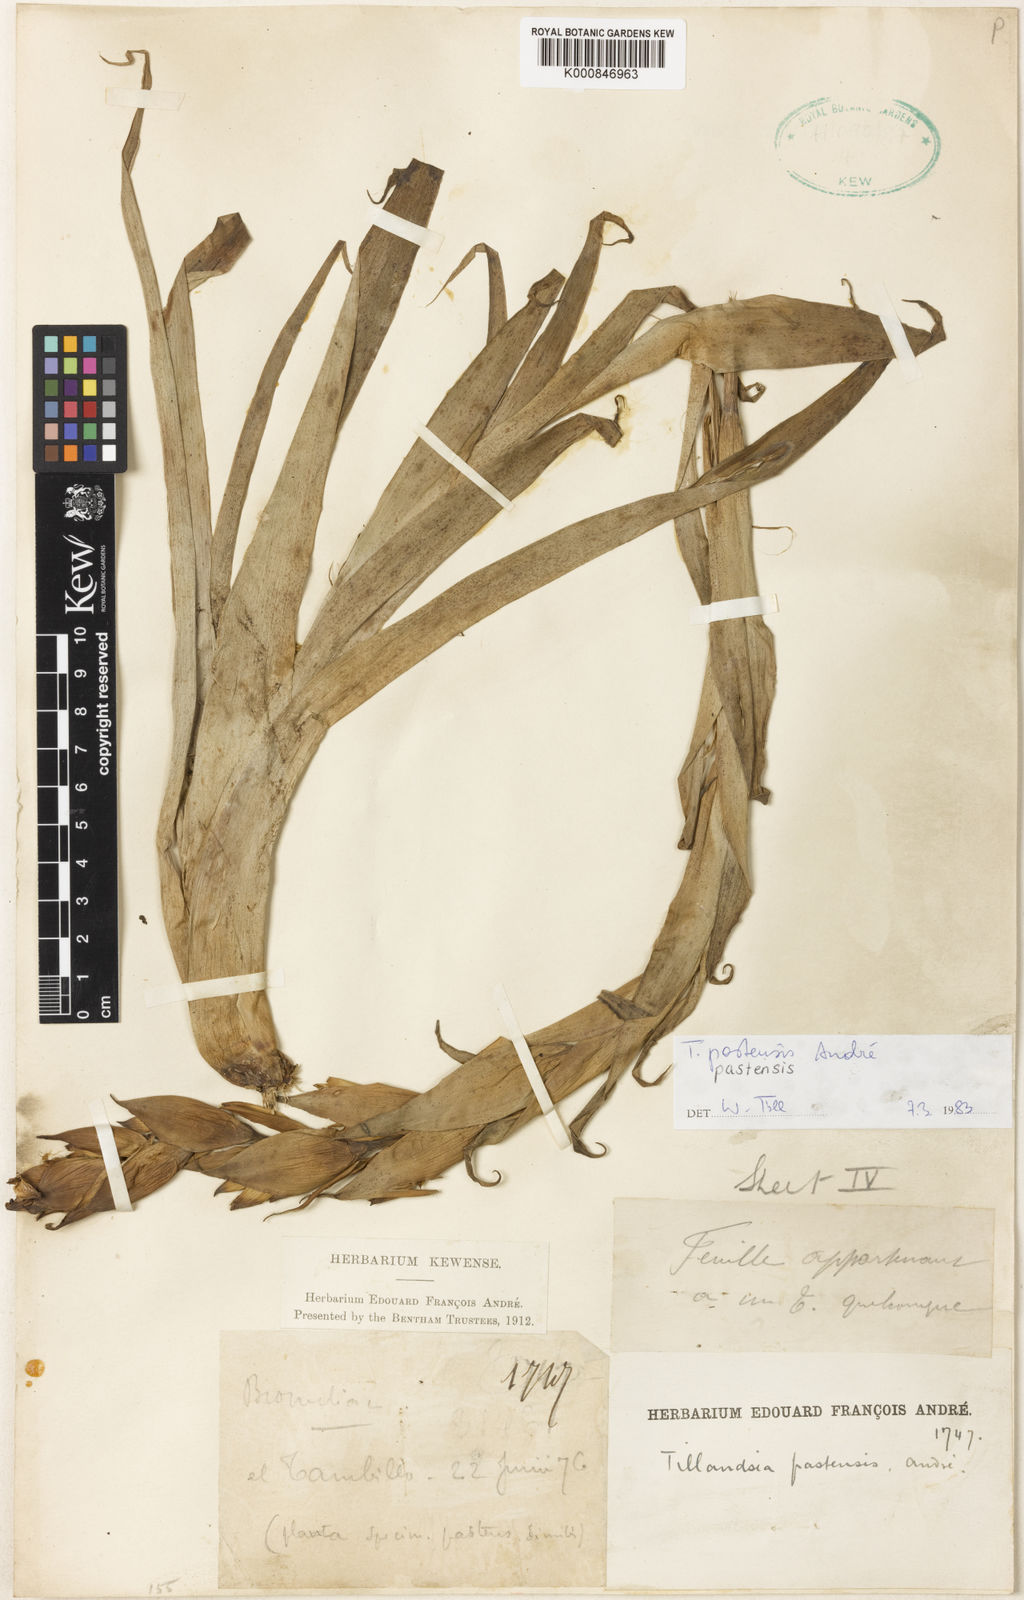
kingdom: Plantae
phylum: Tracheophyta
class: Liliopsida
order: Poales
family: Bromeliaceae
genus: Tillandsia
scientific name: Tillandsia
